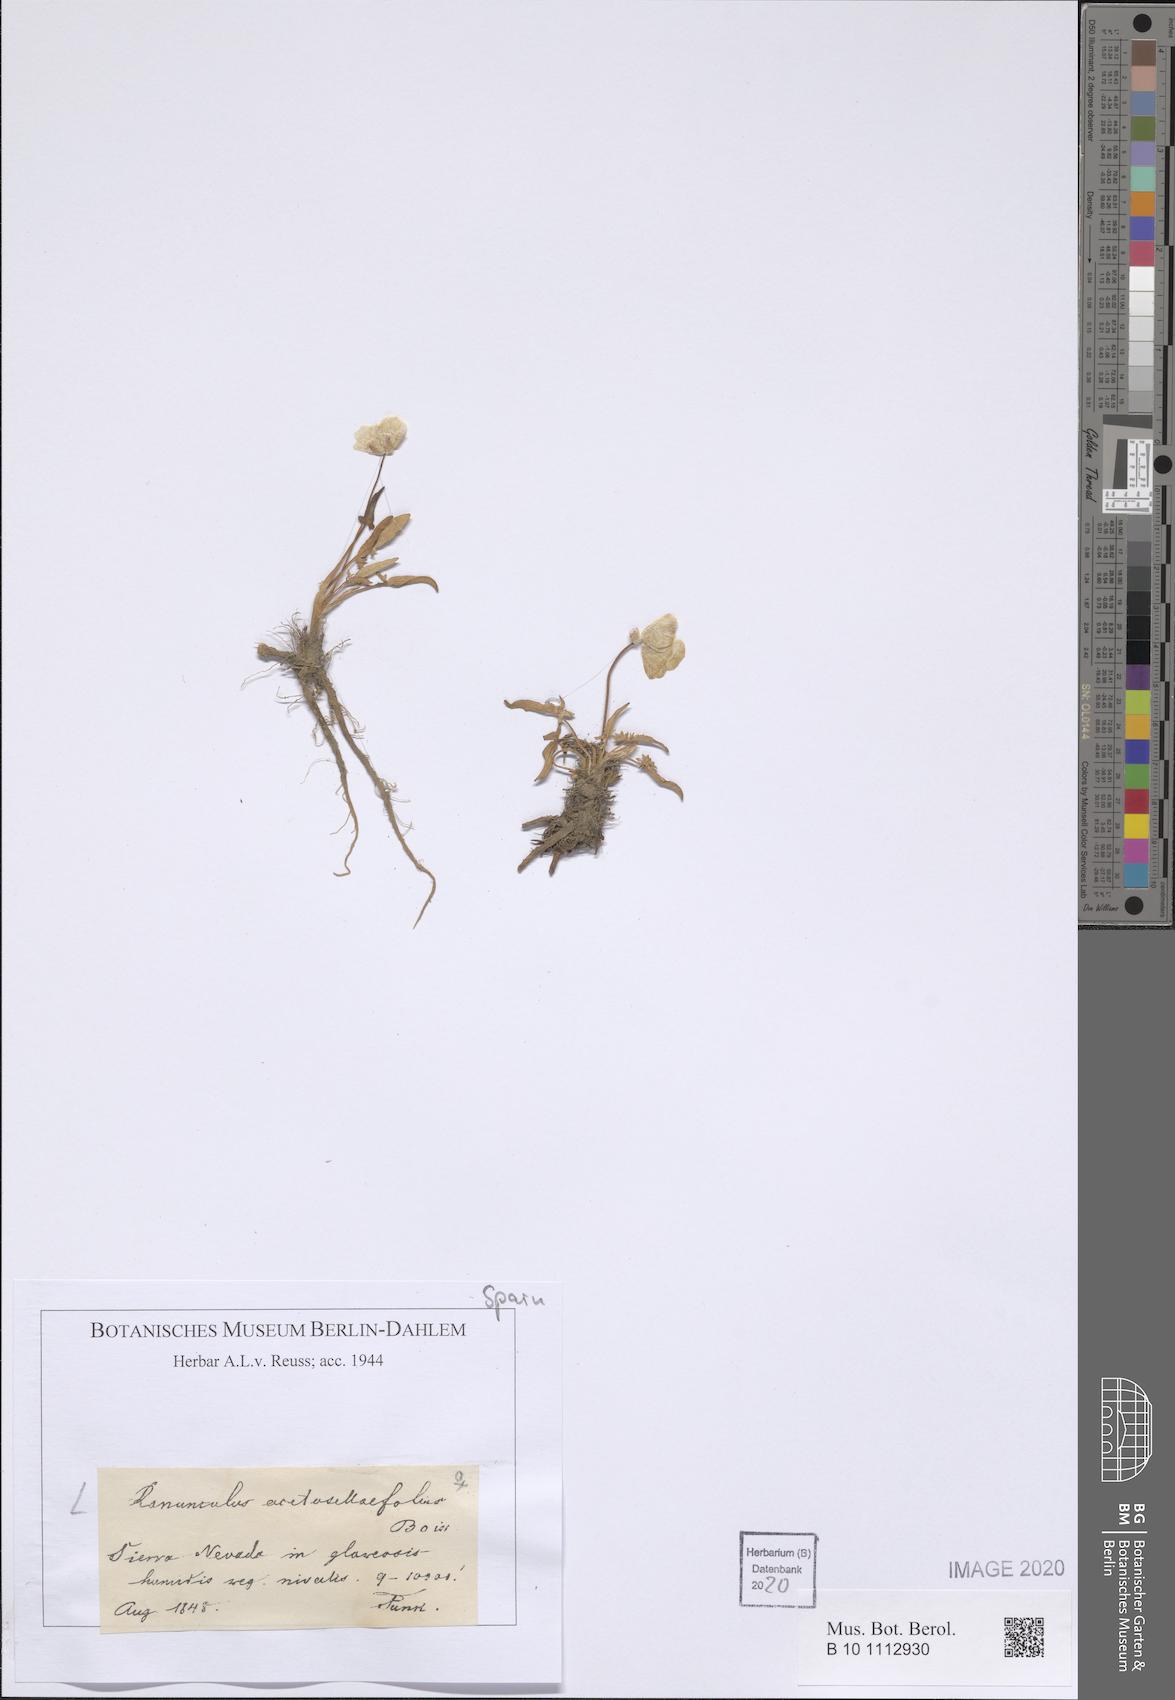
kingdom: Plantae
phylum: Tracheophyta
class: Magnoliopsida
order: Ranunculales
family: Ranunculaceae
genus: Ranunculus
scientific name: Ranunculus acetosellifolius
